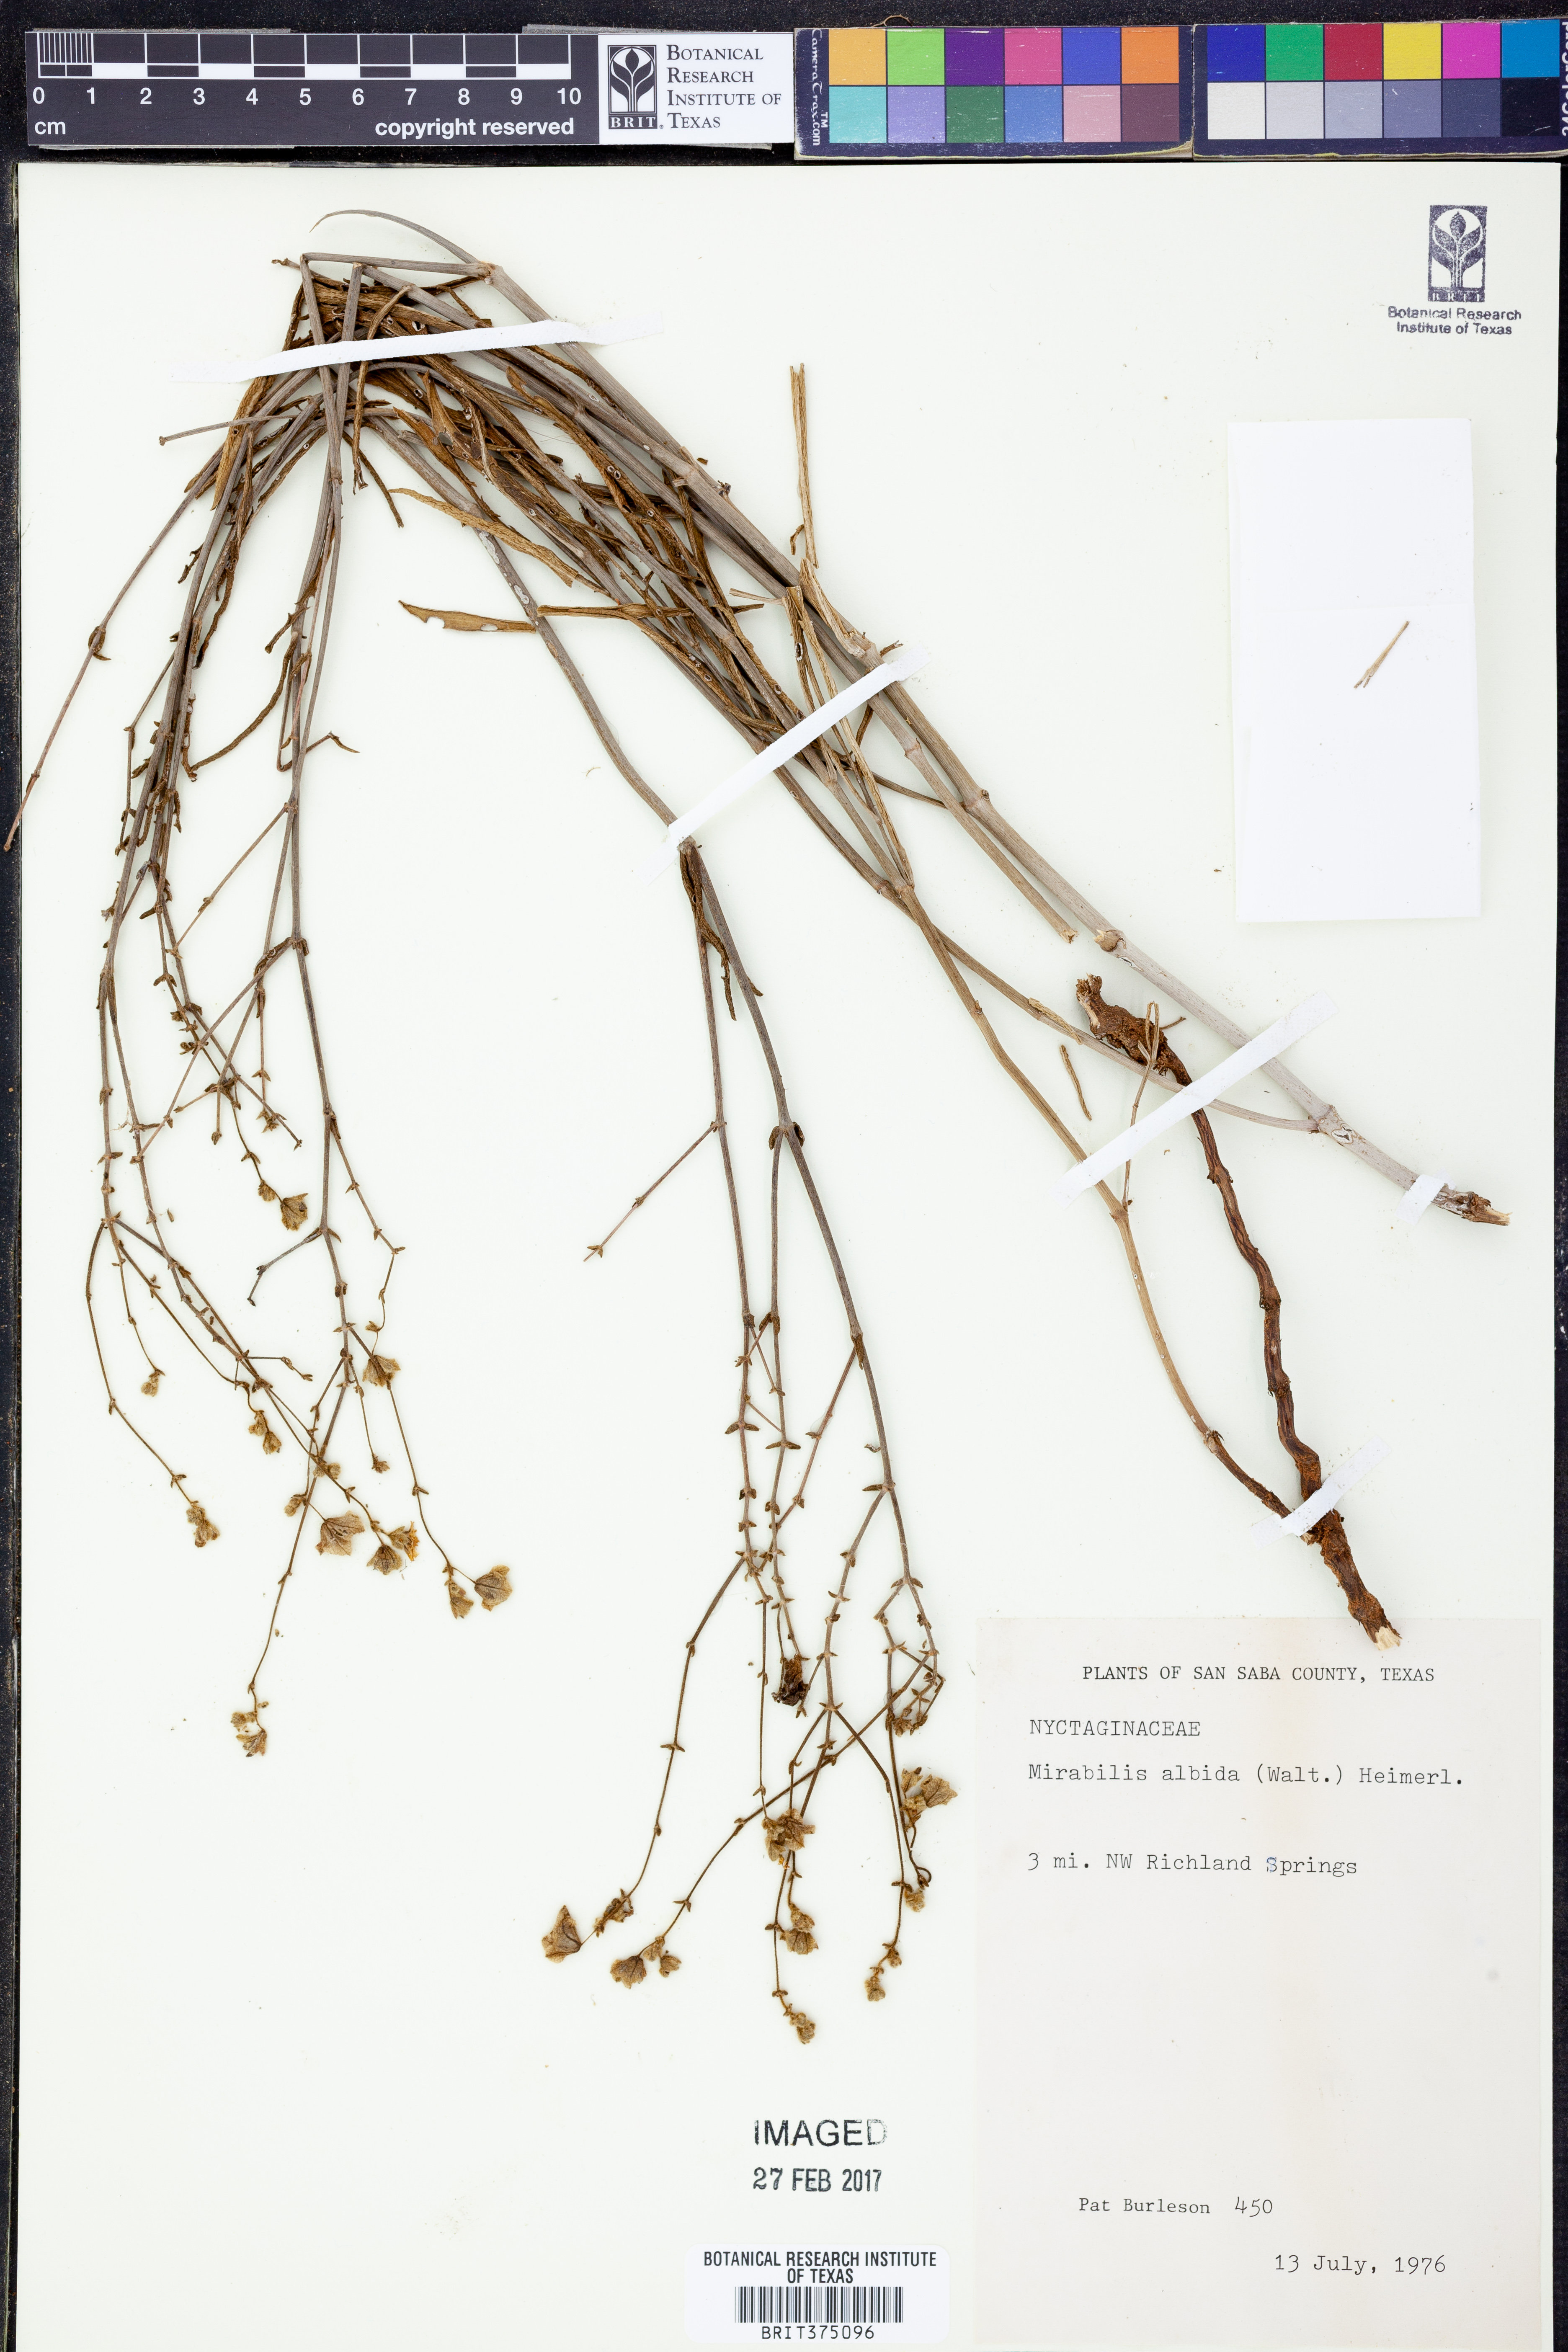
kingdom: Plantae
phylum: Tracheophyta
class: Magnoliopsida
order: Caryophyllales
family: Nyctaginaceae
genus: Mirabilis
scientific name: Mirabilis albida
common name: Hairy four-o'clock
